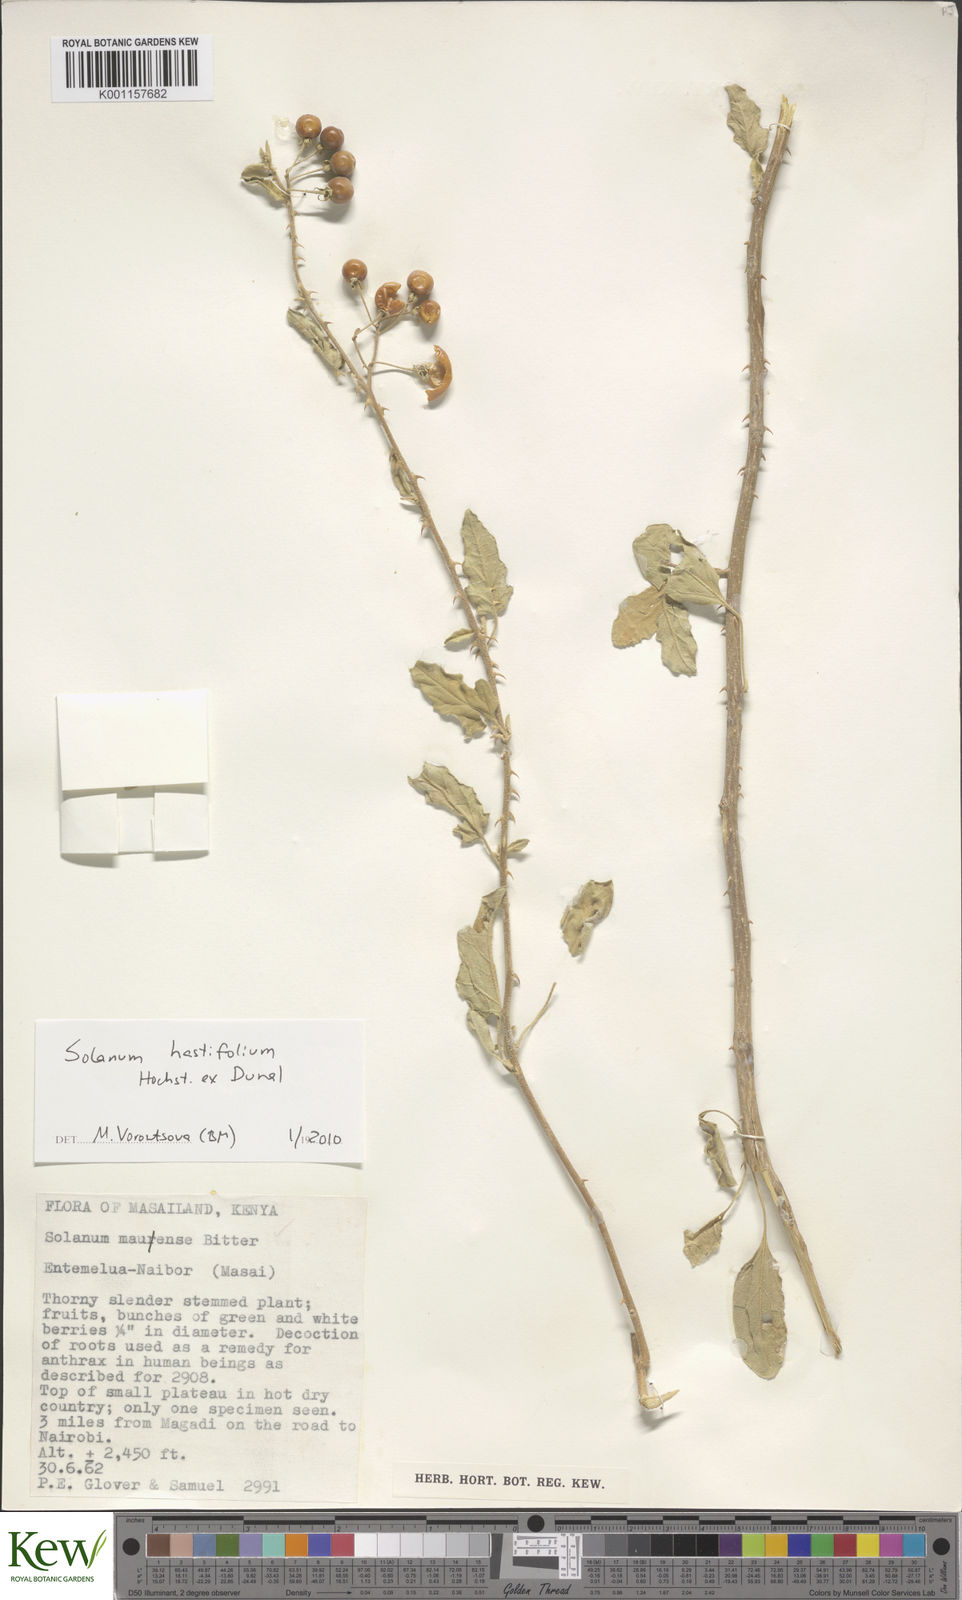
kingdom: Plantae
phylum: Tracheophyta
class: Magnoliopsida
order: Solanales
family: Solanaceae
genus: Solanum
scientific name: Solanum hastifolium
